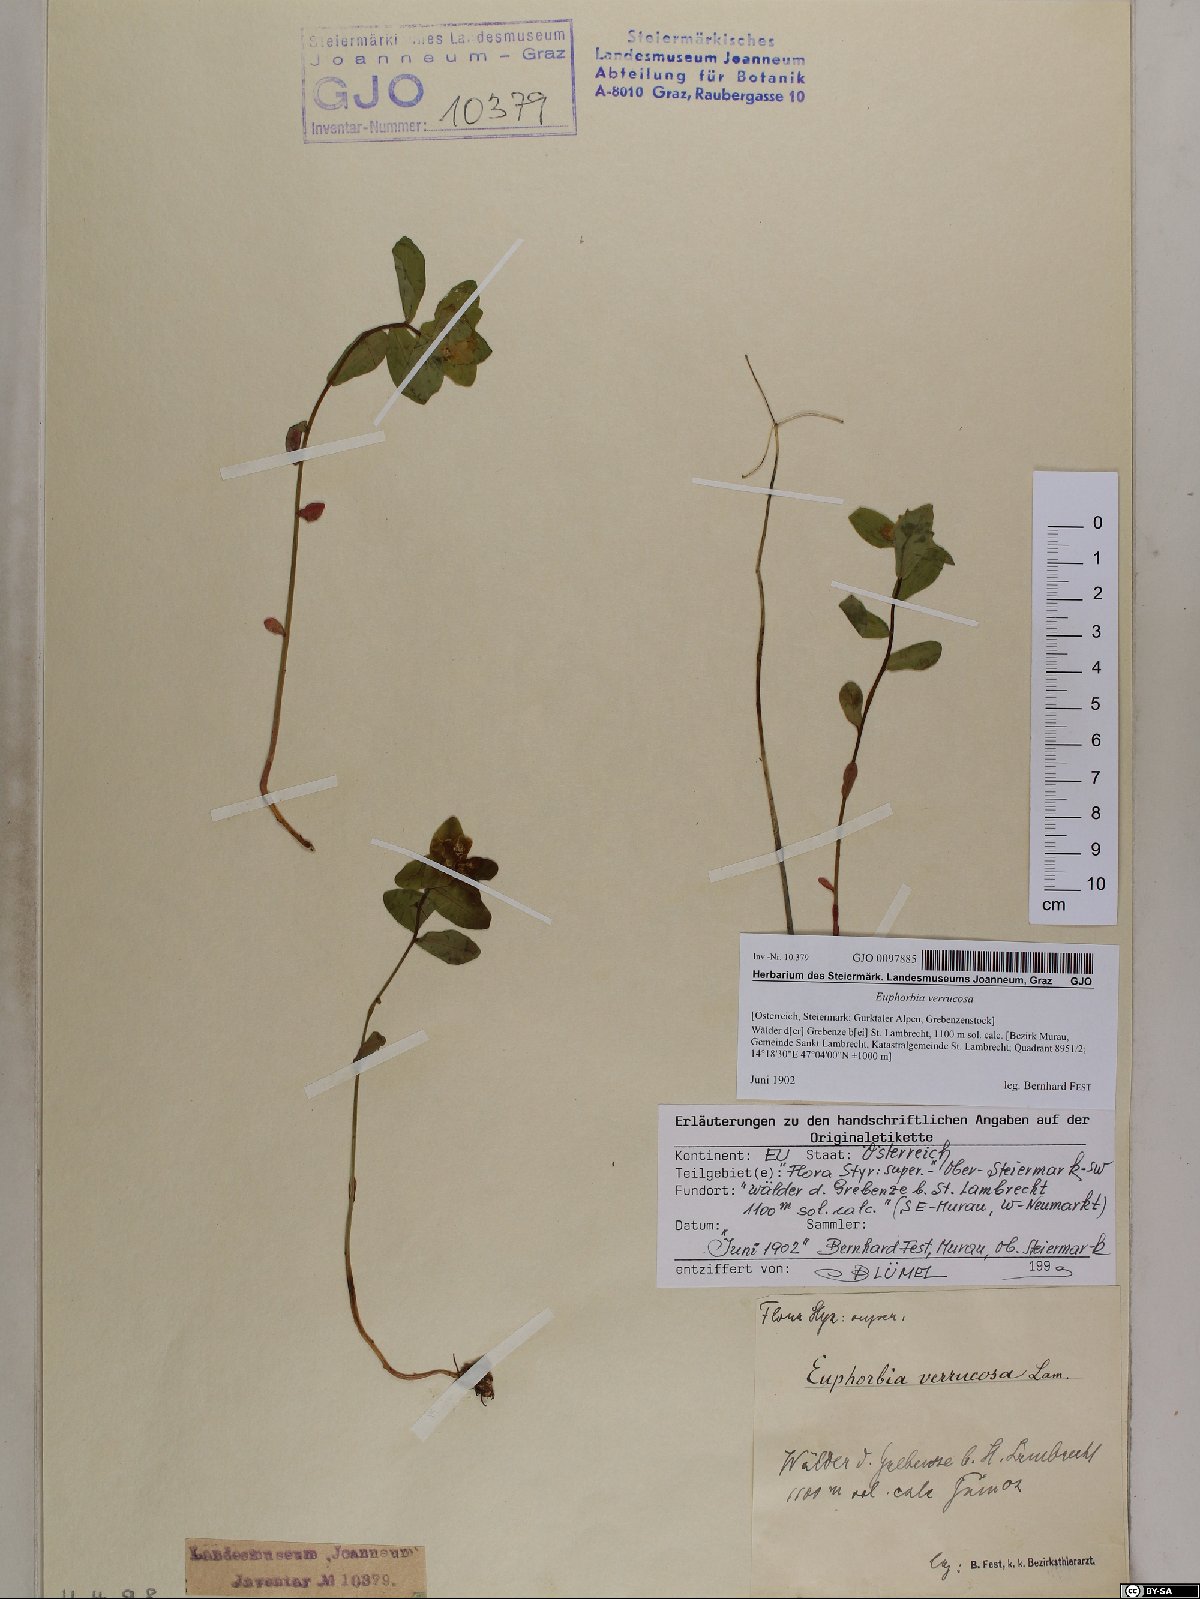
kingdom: Plantae
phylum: Tracheophyta
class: Magnoliopsida
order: Malpighiales
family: Euphorbiaceae
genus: Euphorbia
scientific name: Euphorbia verrucosa
